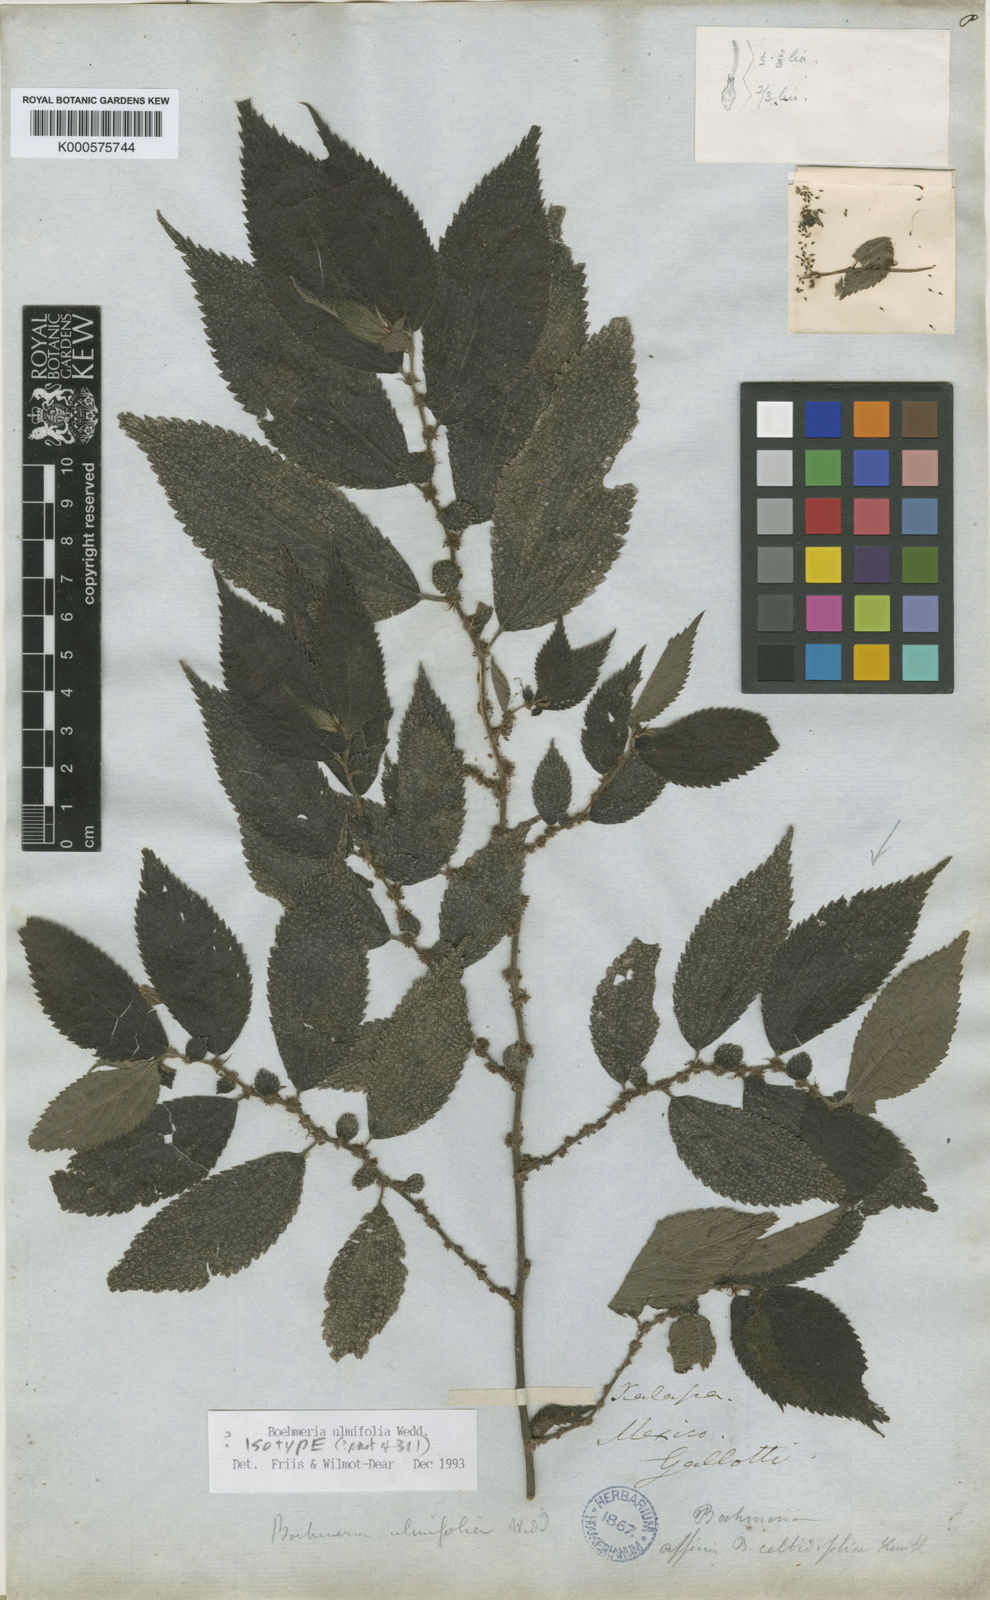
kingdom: Plantae
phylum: Tracheophyta
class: Magnoliopsida
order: Rosales
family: Urticaceae
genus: Boehmeria
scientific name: Boehmeria ulmifolia
